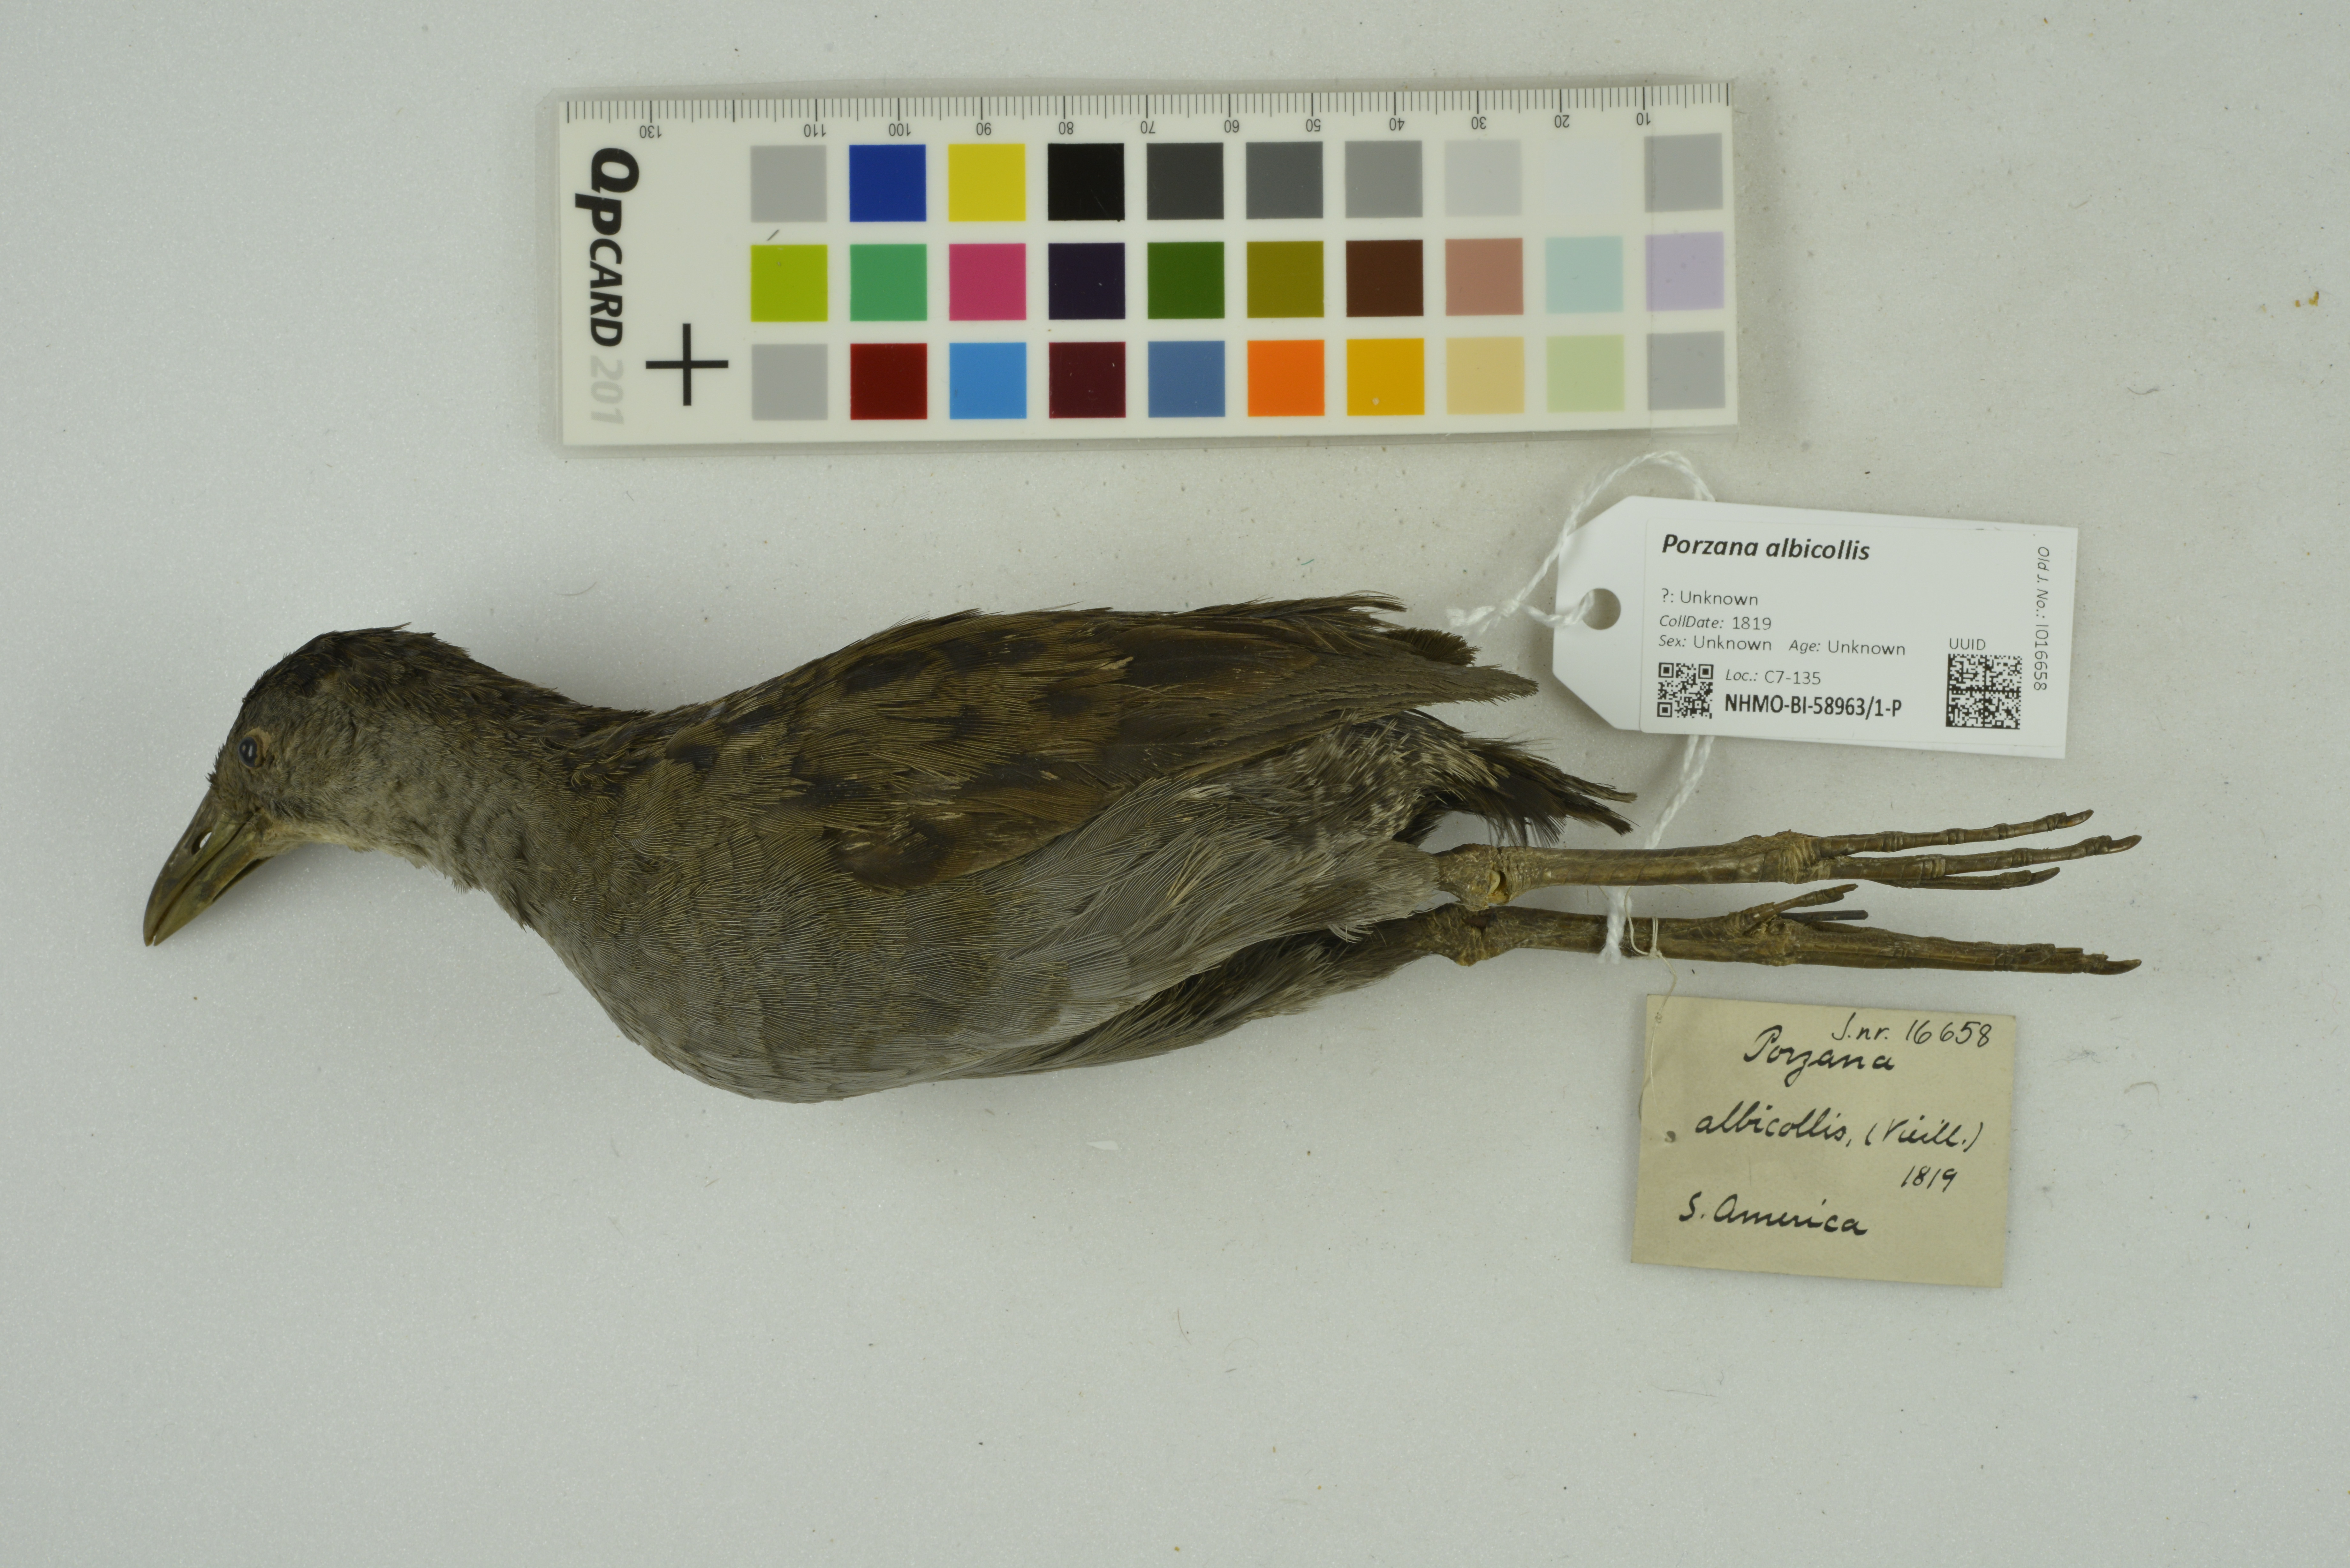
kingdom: Animalia
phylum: Chordata
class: Aves
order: Gruiformes
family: Rallidae
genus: Porzana
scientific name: Porzana albicollis
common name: Ash-throated crake
